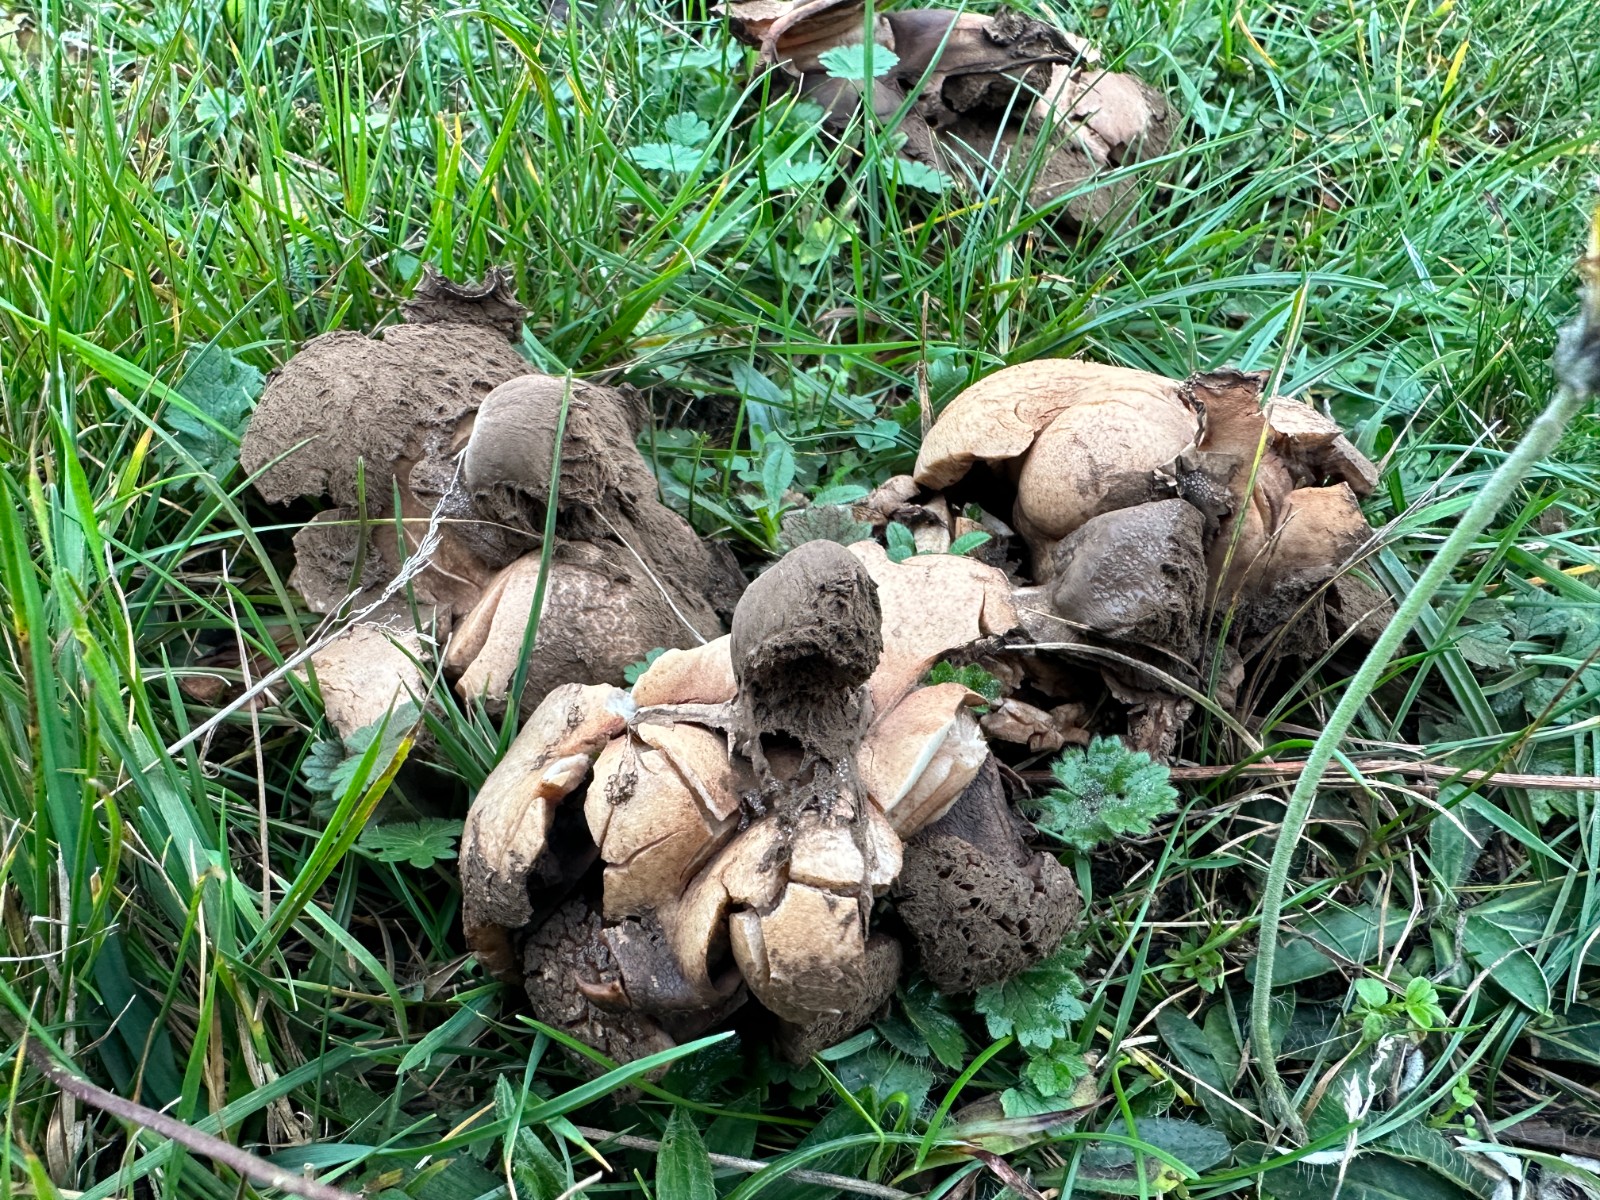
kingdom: Fungi
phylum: Basidiomycota
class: Agaricomycetes
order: Geastrales
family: Geastraceae
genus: Geastrum
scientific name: Geastrum melanocephalum
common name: håret stjernebold
